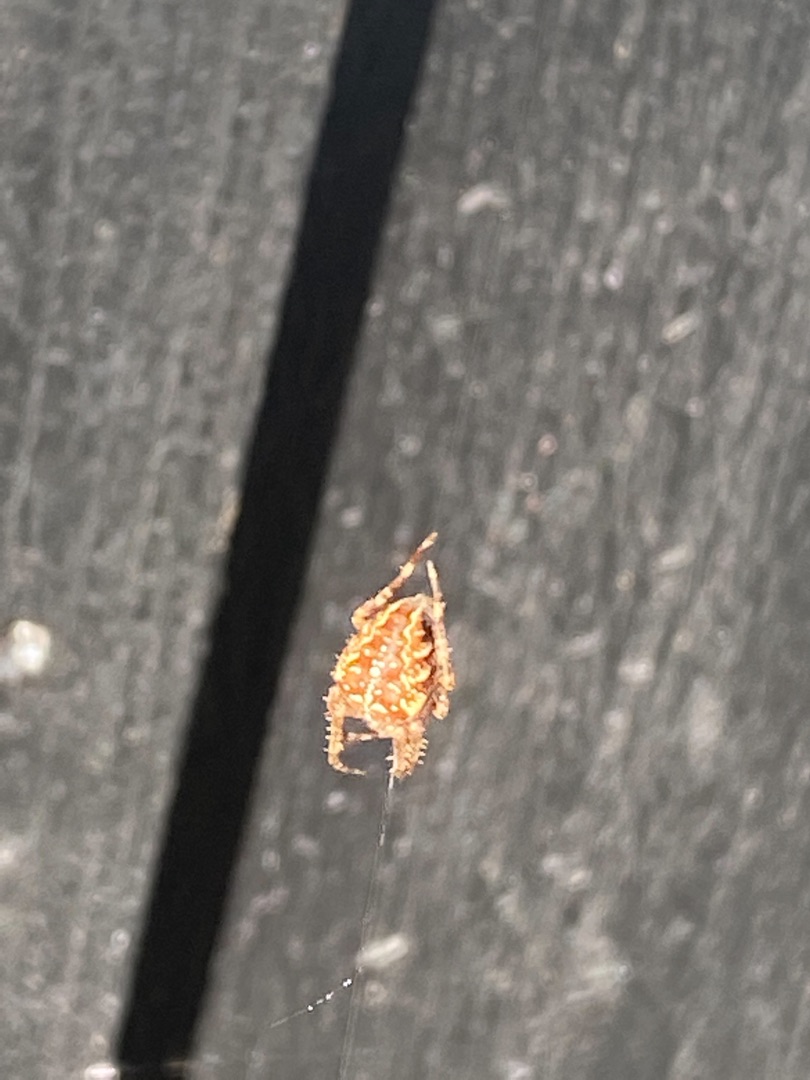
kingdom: Animalia
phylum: Arthropoda
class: Arachnida
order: Araneae
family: Araneidae
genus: Araneus
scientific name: Araneus diadematus
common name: Korsedderkop
